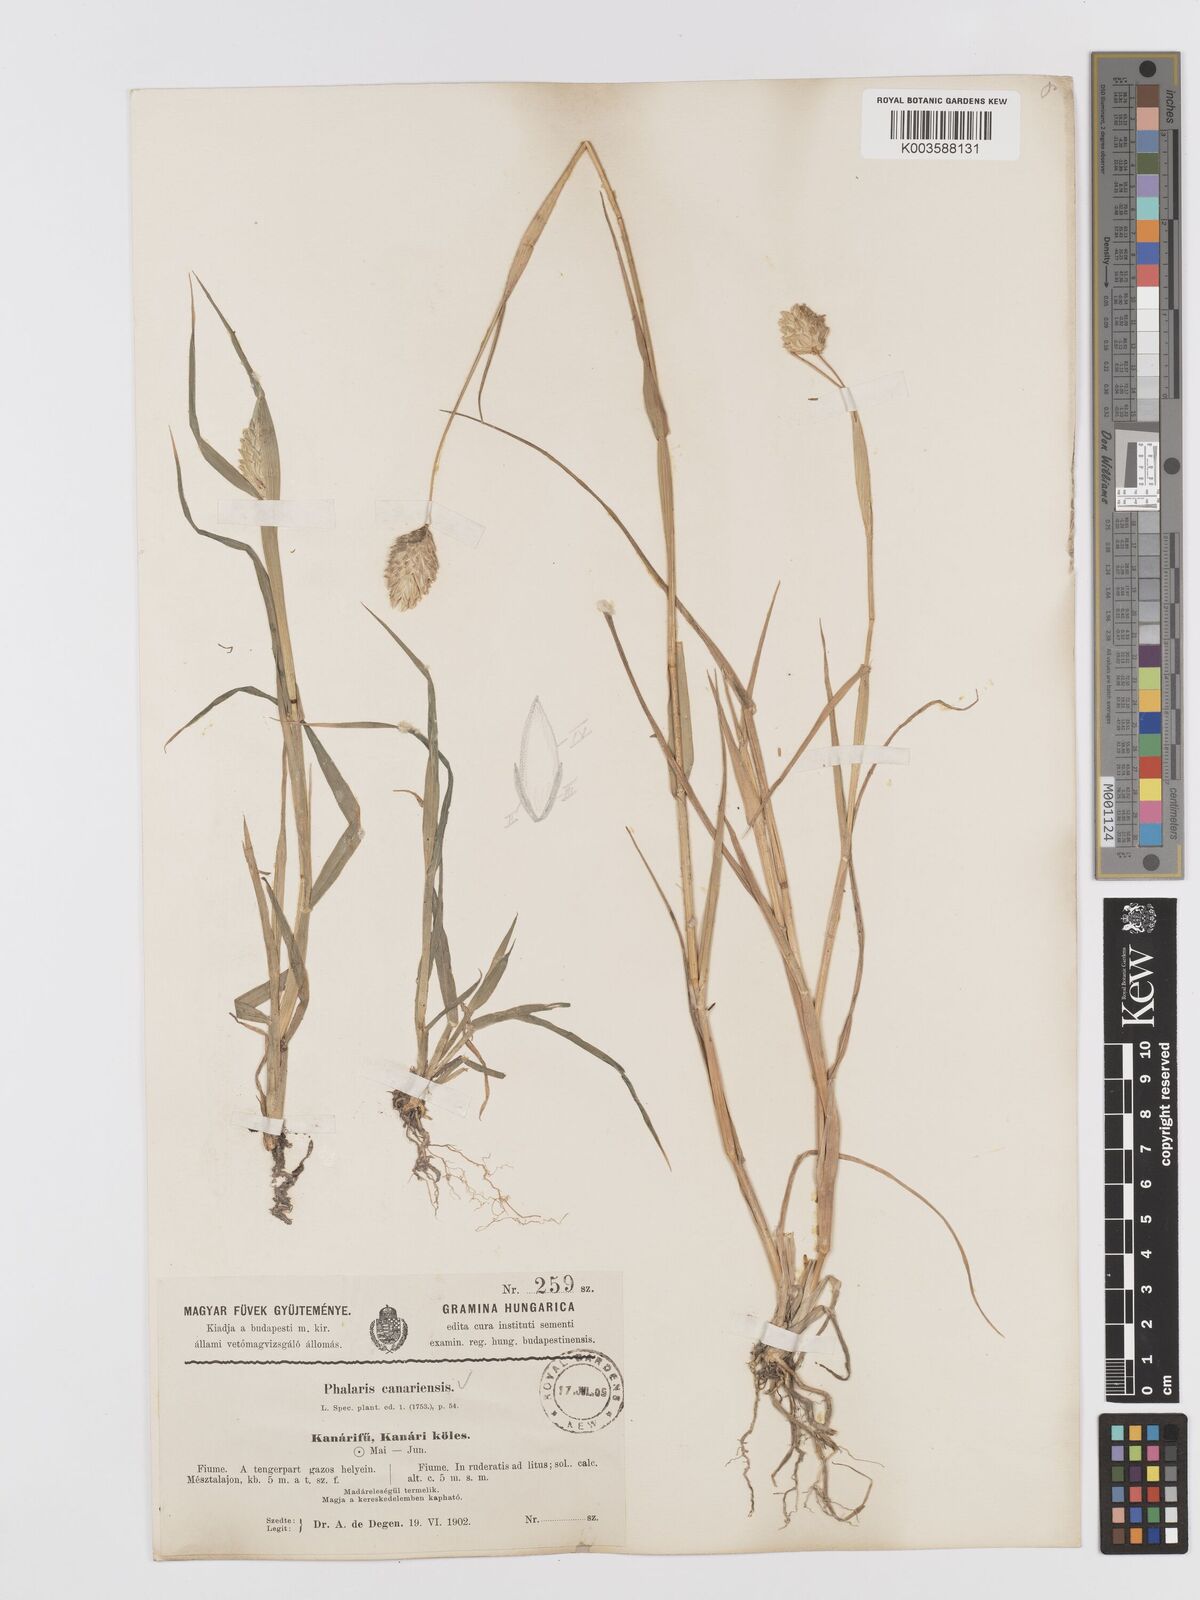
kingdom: Plantae
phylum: Tracheophyta
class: Liliopsida
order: Poales
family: Poaceae
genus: Phalaris
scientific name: Phalaris canariensis
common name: Annual canarygrass
